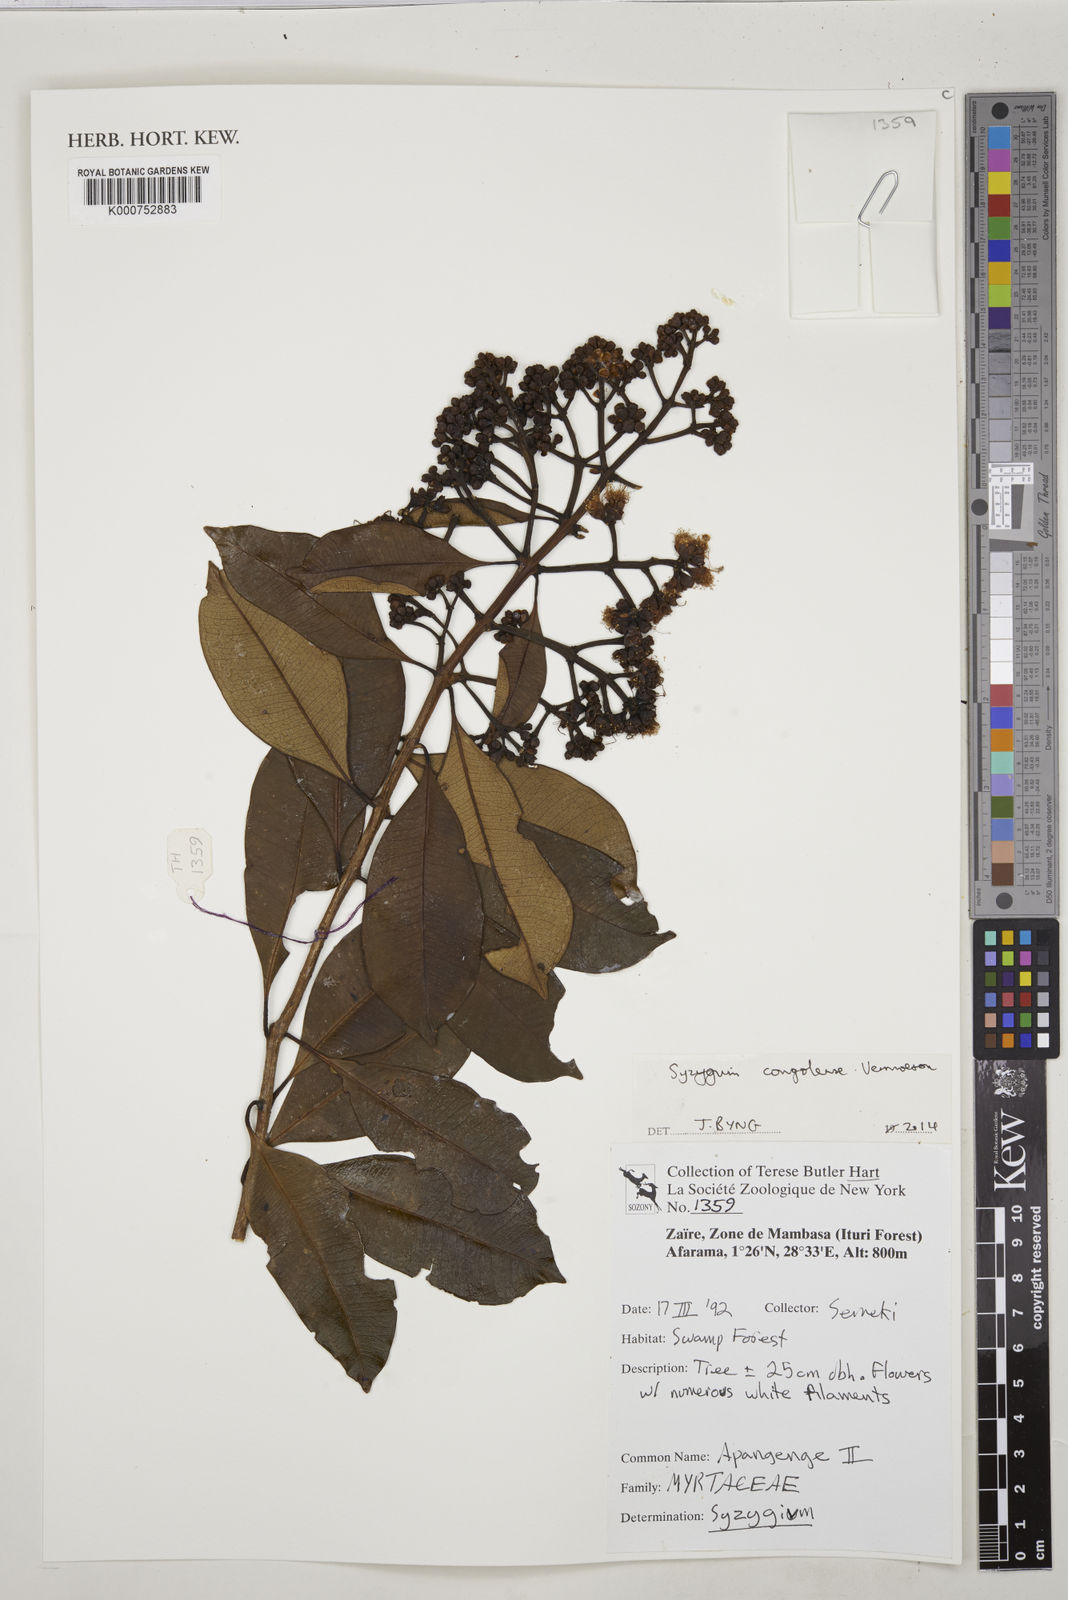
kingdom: Plantae
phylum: Tracheophyta
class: Magnoliopsida
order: Myrtales
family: Myrtaceae
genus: Syzygium
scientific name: Syzygium congolense
